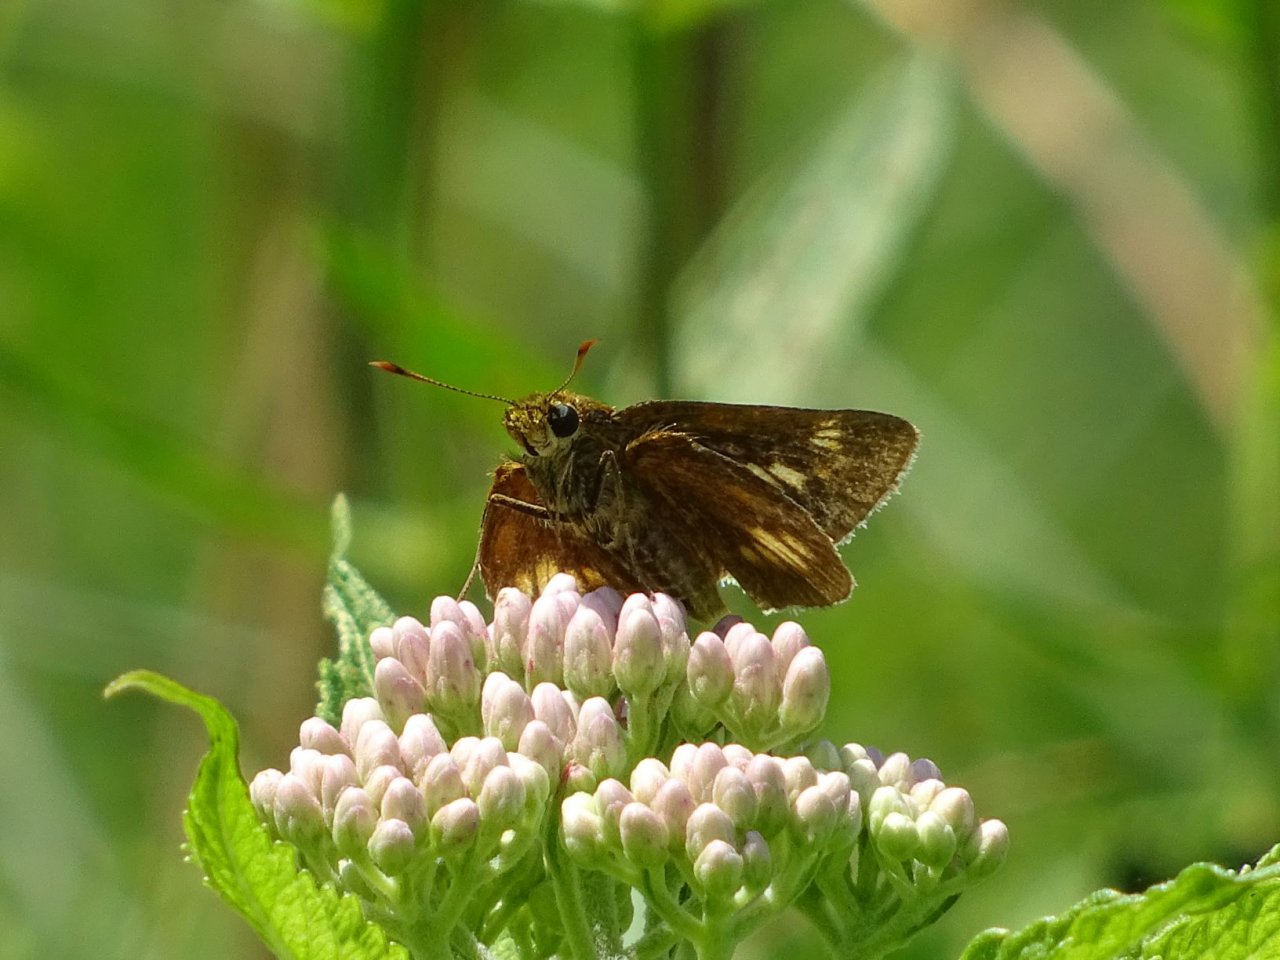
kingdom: Animalia
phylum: Arthropoda
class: Insecta
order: Lepidoptera
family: Hesperiidae
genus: Euphyes
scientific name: Euphyes conspicua
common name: Black Dash
